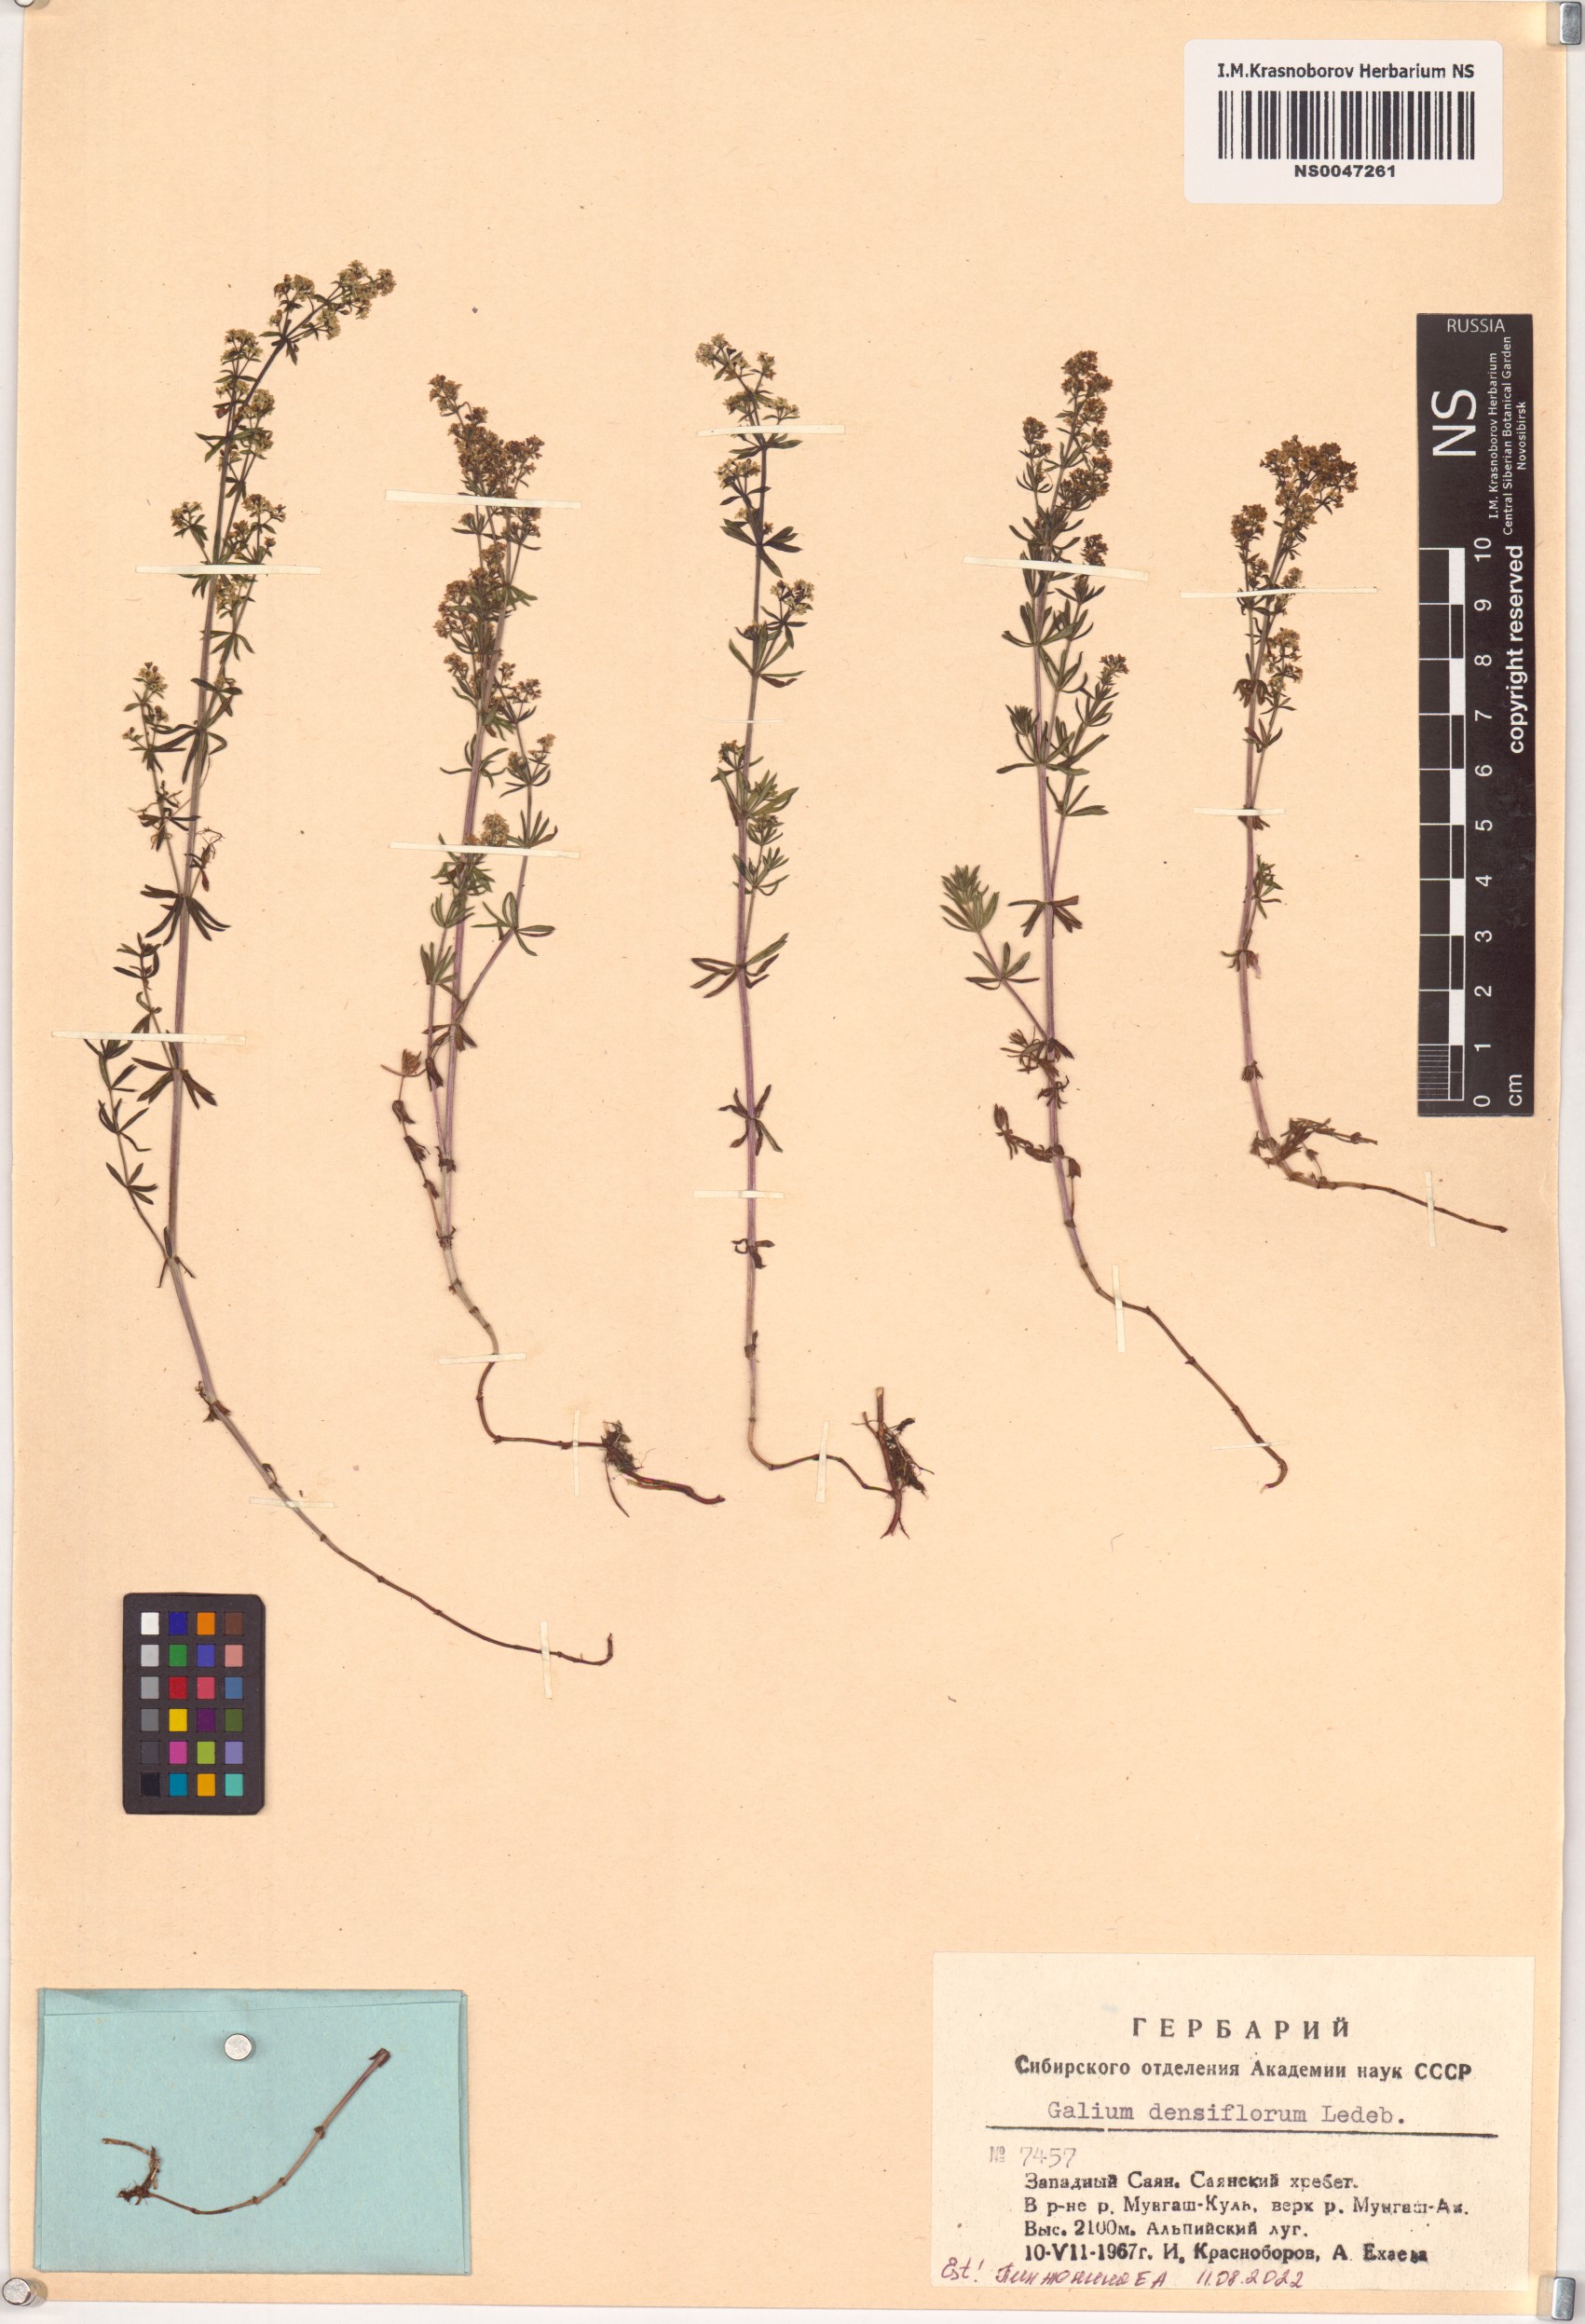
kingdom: Plantae
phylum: Tracheophyta
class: Magnoliopsida
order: Gentianales
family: Rubiaceae
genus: Galium
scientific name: Galium densiflorum
